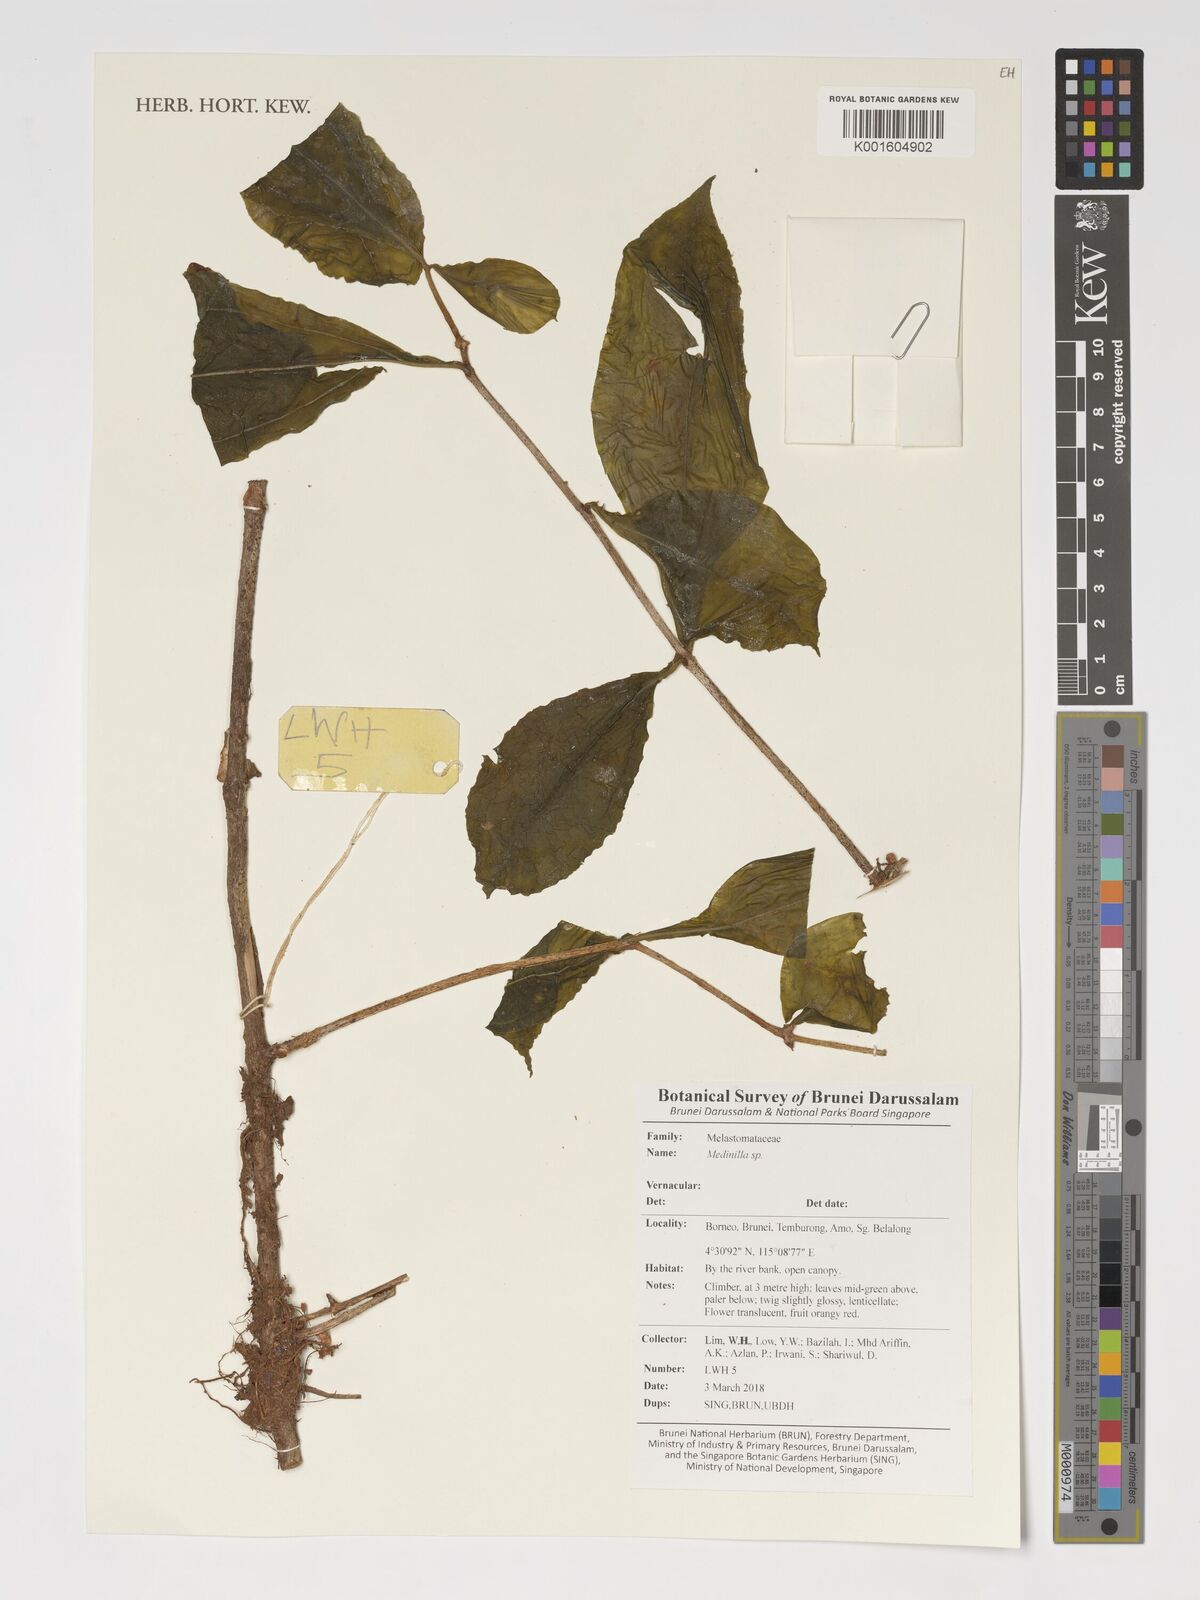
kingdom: Plantae
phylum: Tracheophyta
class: Magnoliopsida
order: Myrtales
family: Melastomataceae
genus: Medinilla
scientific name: Medinilla
